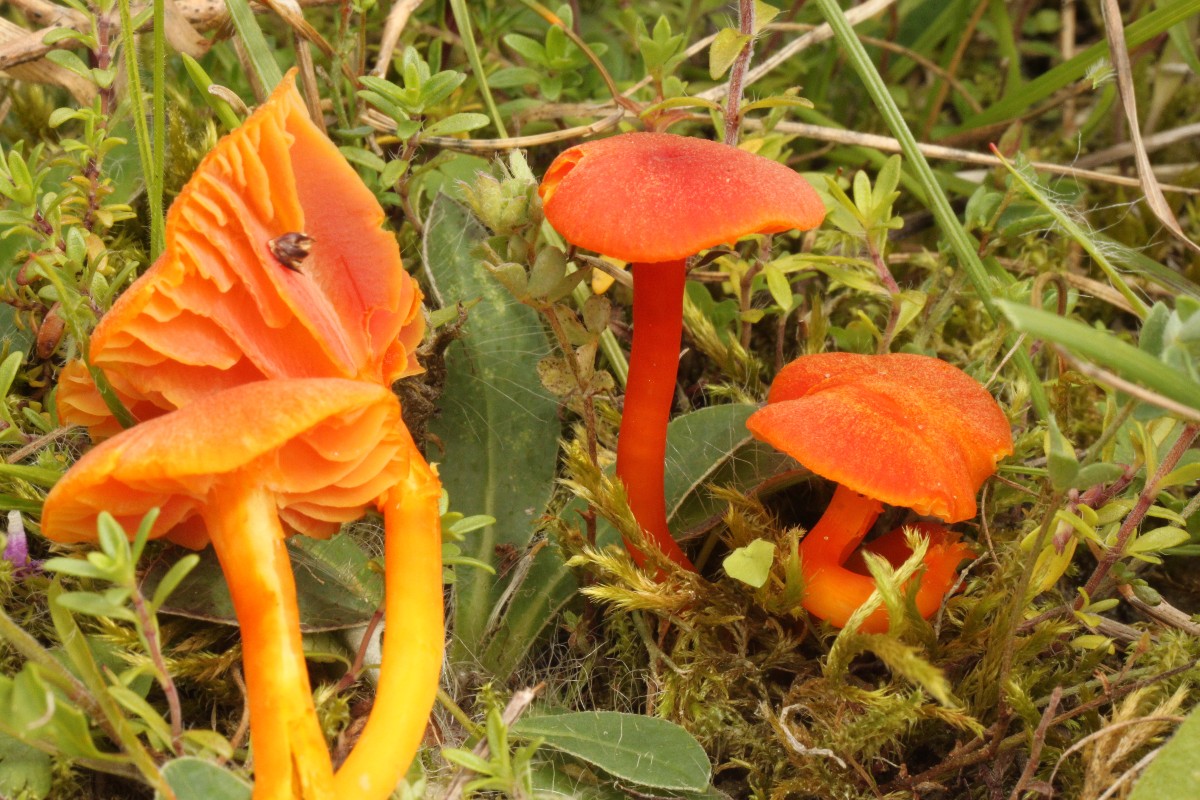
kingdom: Fungi
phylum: Basidiomycota
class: Agaricomycetes
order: Agaricales
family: Hygrophoraceae
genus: Hygrocybe
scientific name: Hygrocybe
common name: vokshat
